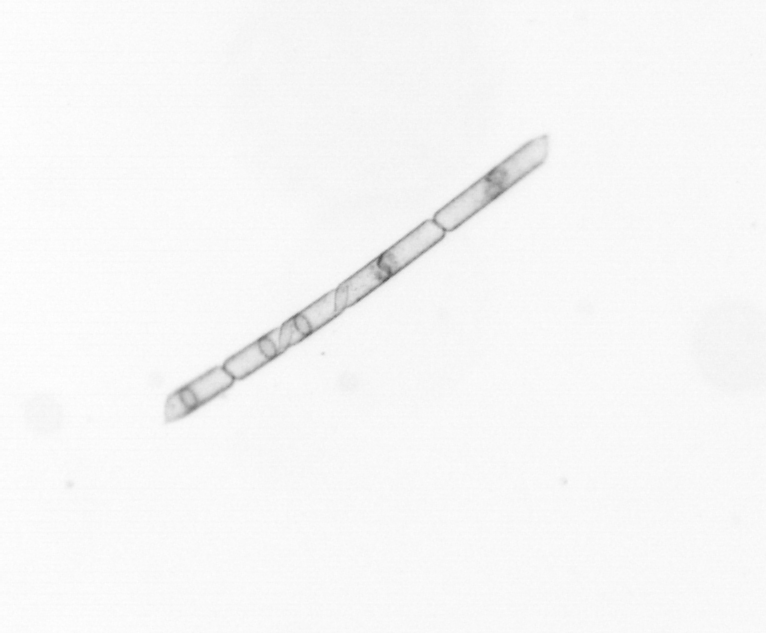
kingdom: Chromista
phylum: Ochrophyta
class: Bacillariophyceae
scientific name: Bacillariophyceae
